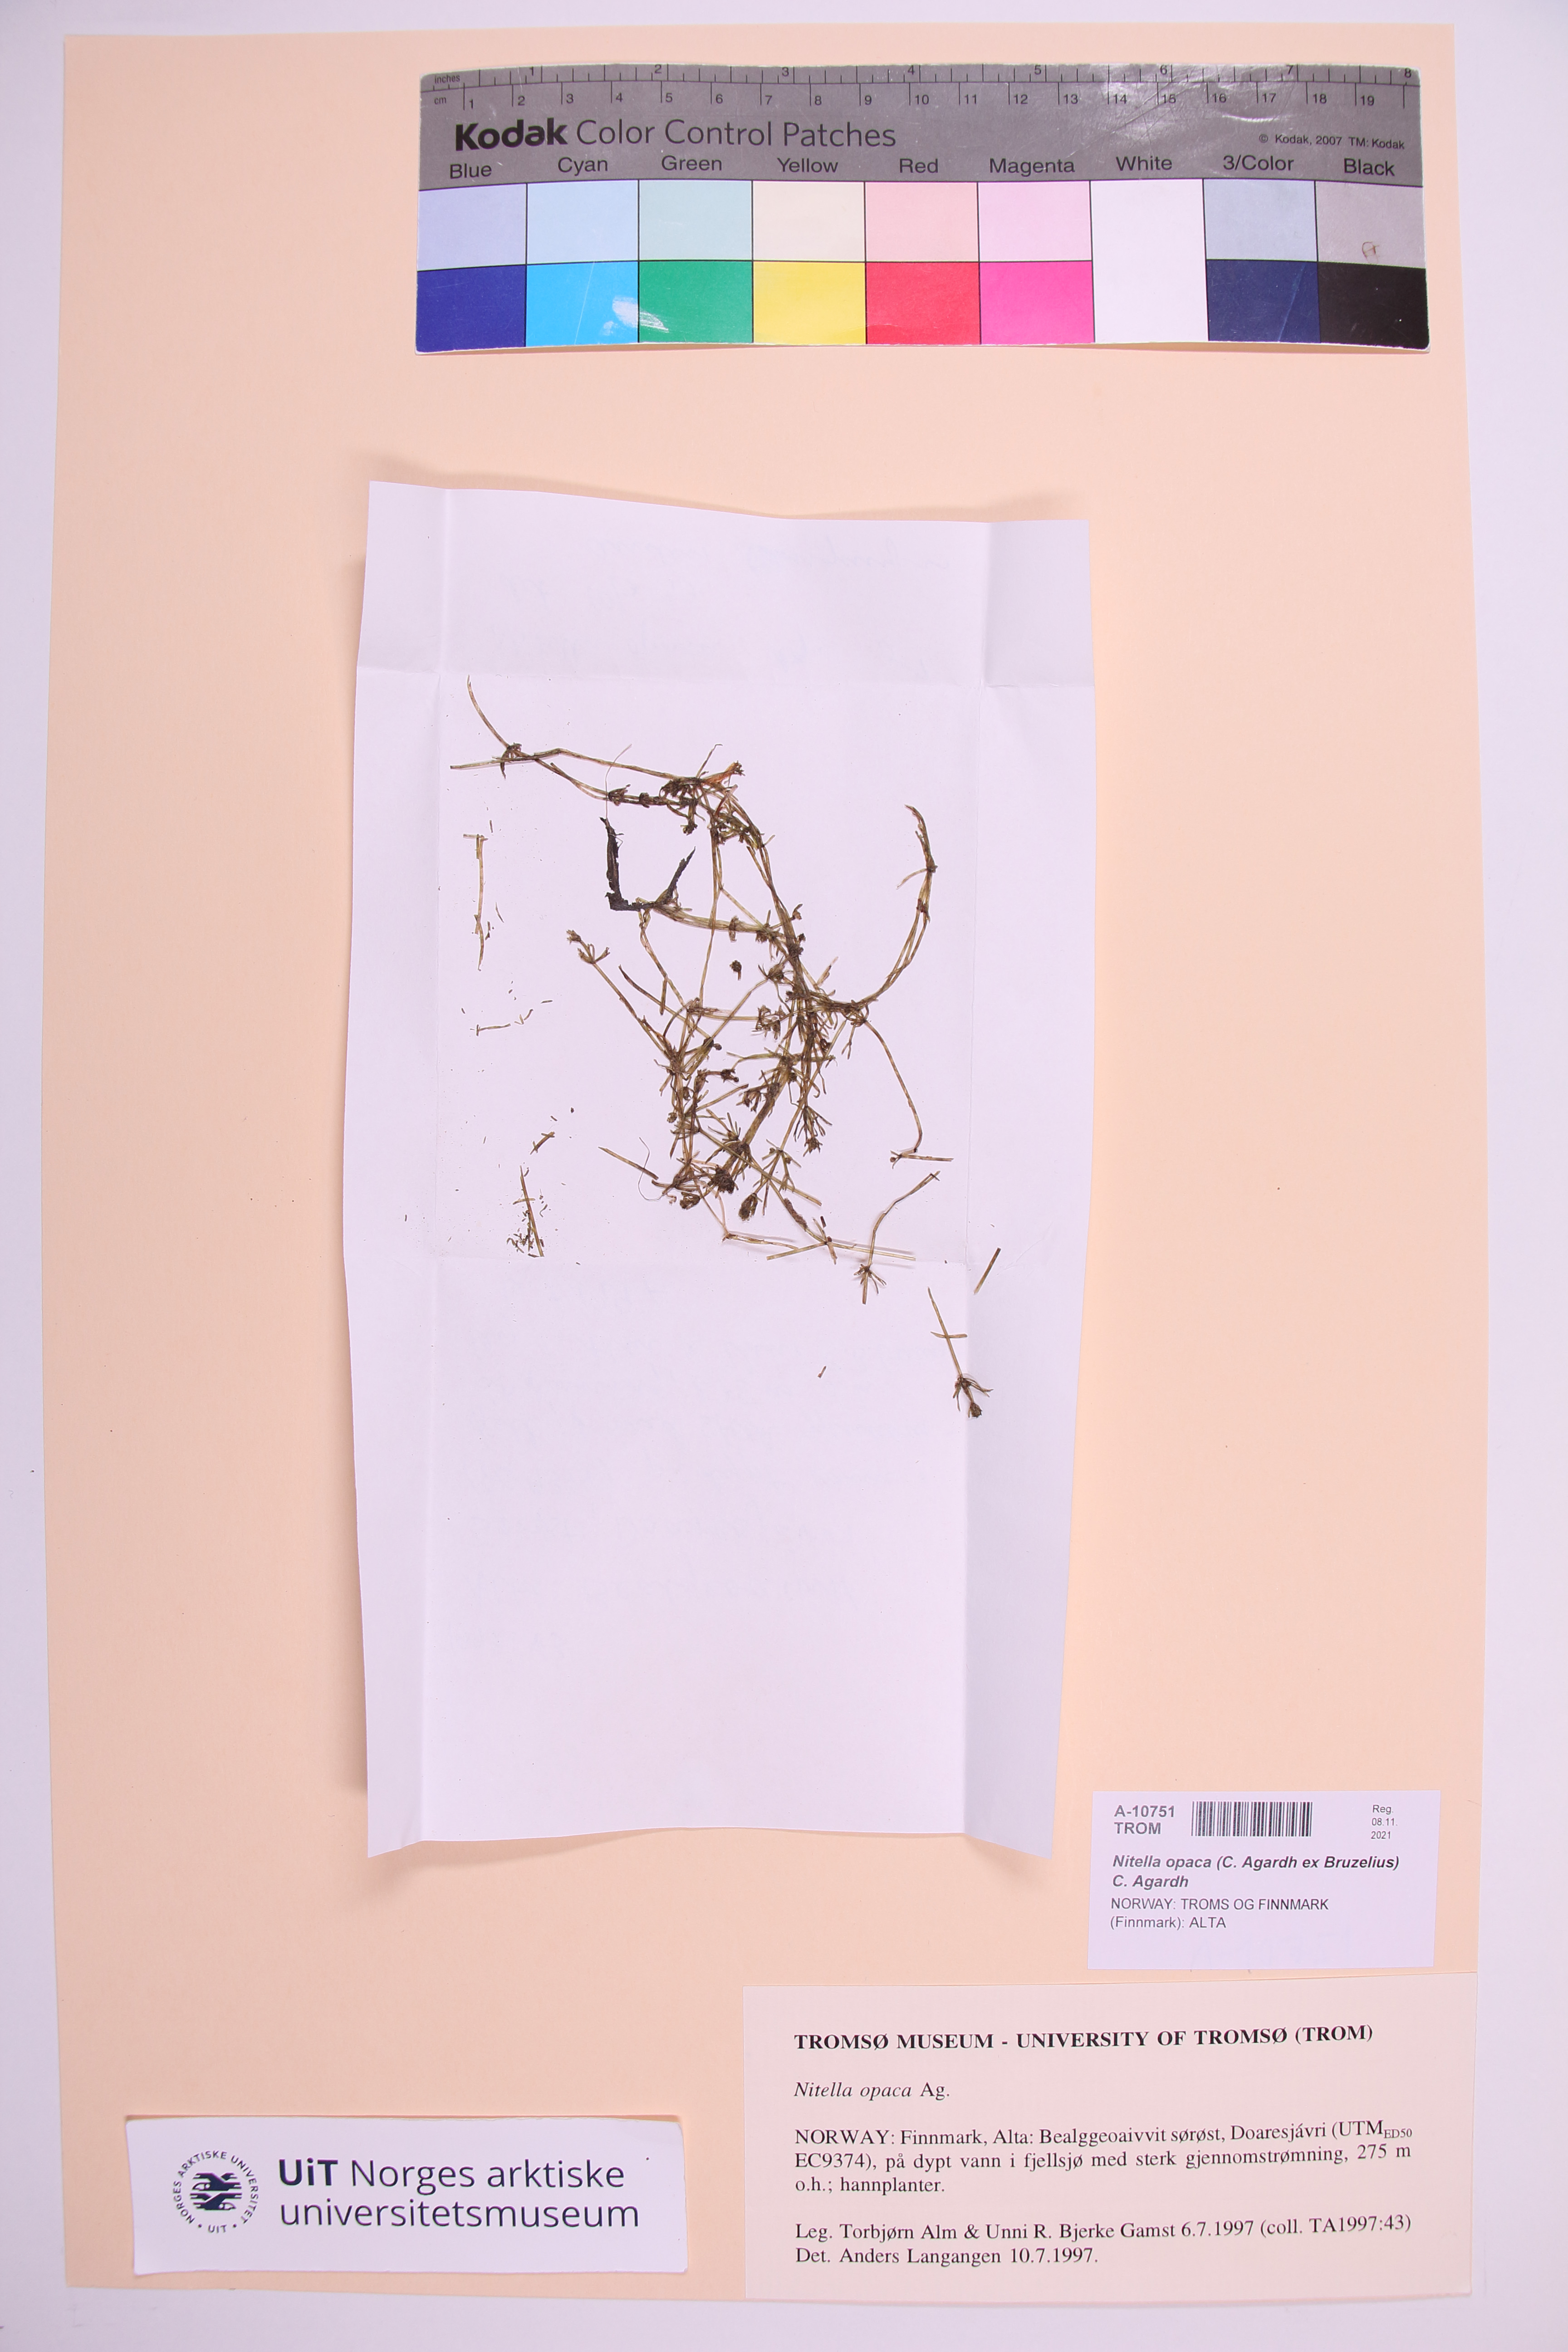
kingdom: Plantae
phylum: Charophyta
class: Charophyceae
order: Charales
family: Characeae
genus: Nitella
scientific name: Nitella opaca
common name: Dark stonewort
